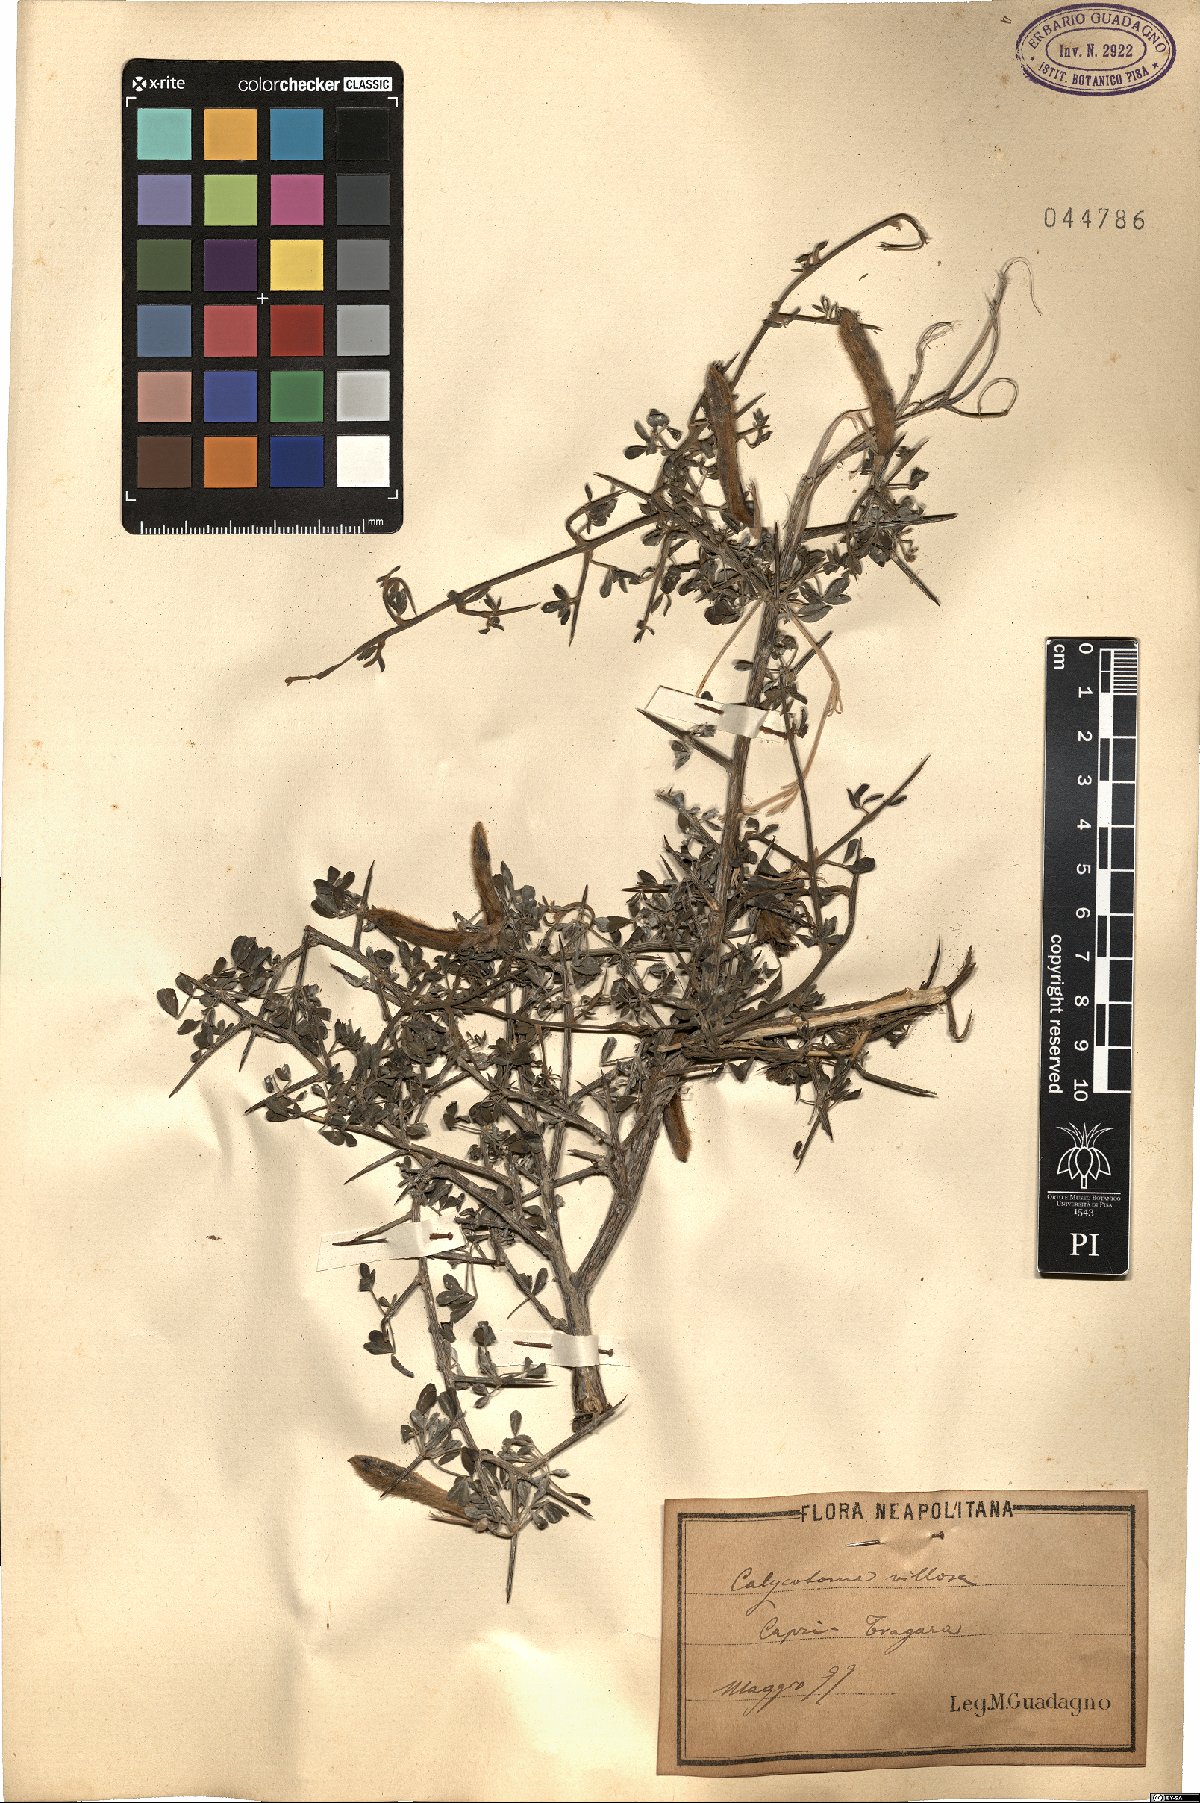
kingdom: Plantae
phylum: Tracheophyta
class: Magnoliopsida
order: Fabales
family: Fabaceae
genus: Calicotome
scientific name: Calicotome villosa
